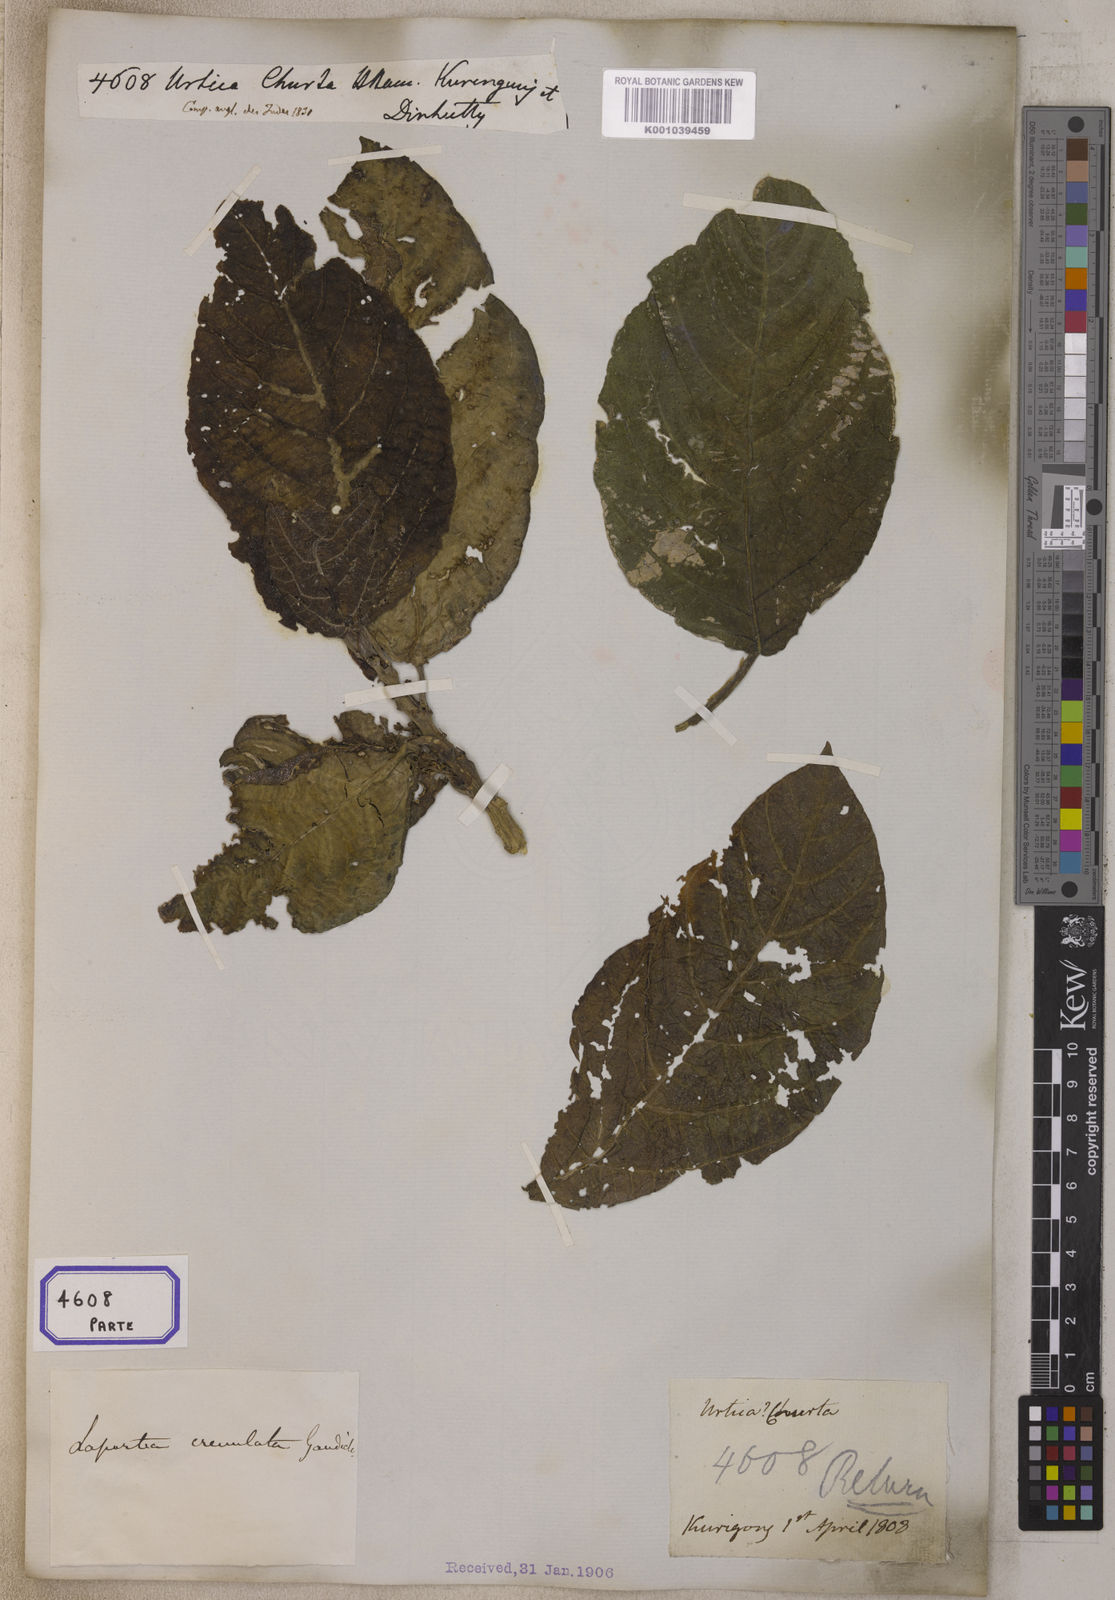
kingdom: Plantae
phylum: Tracheophyta
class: Magnoliopsida
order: Rosales
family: Urticaceae
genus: Dendrocnide
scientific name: Dendrocnide sinuata
